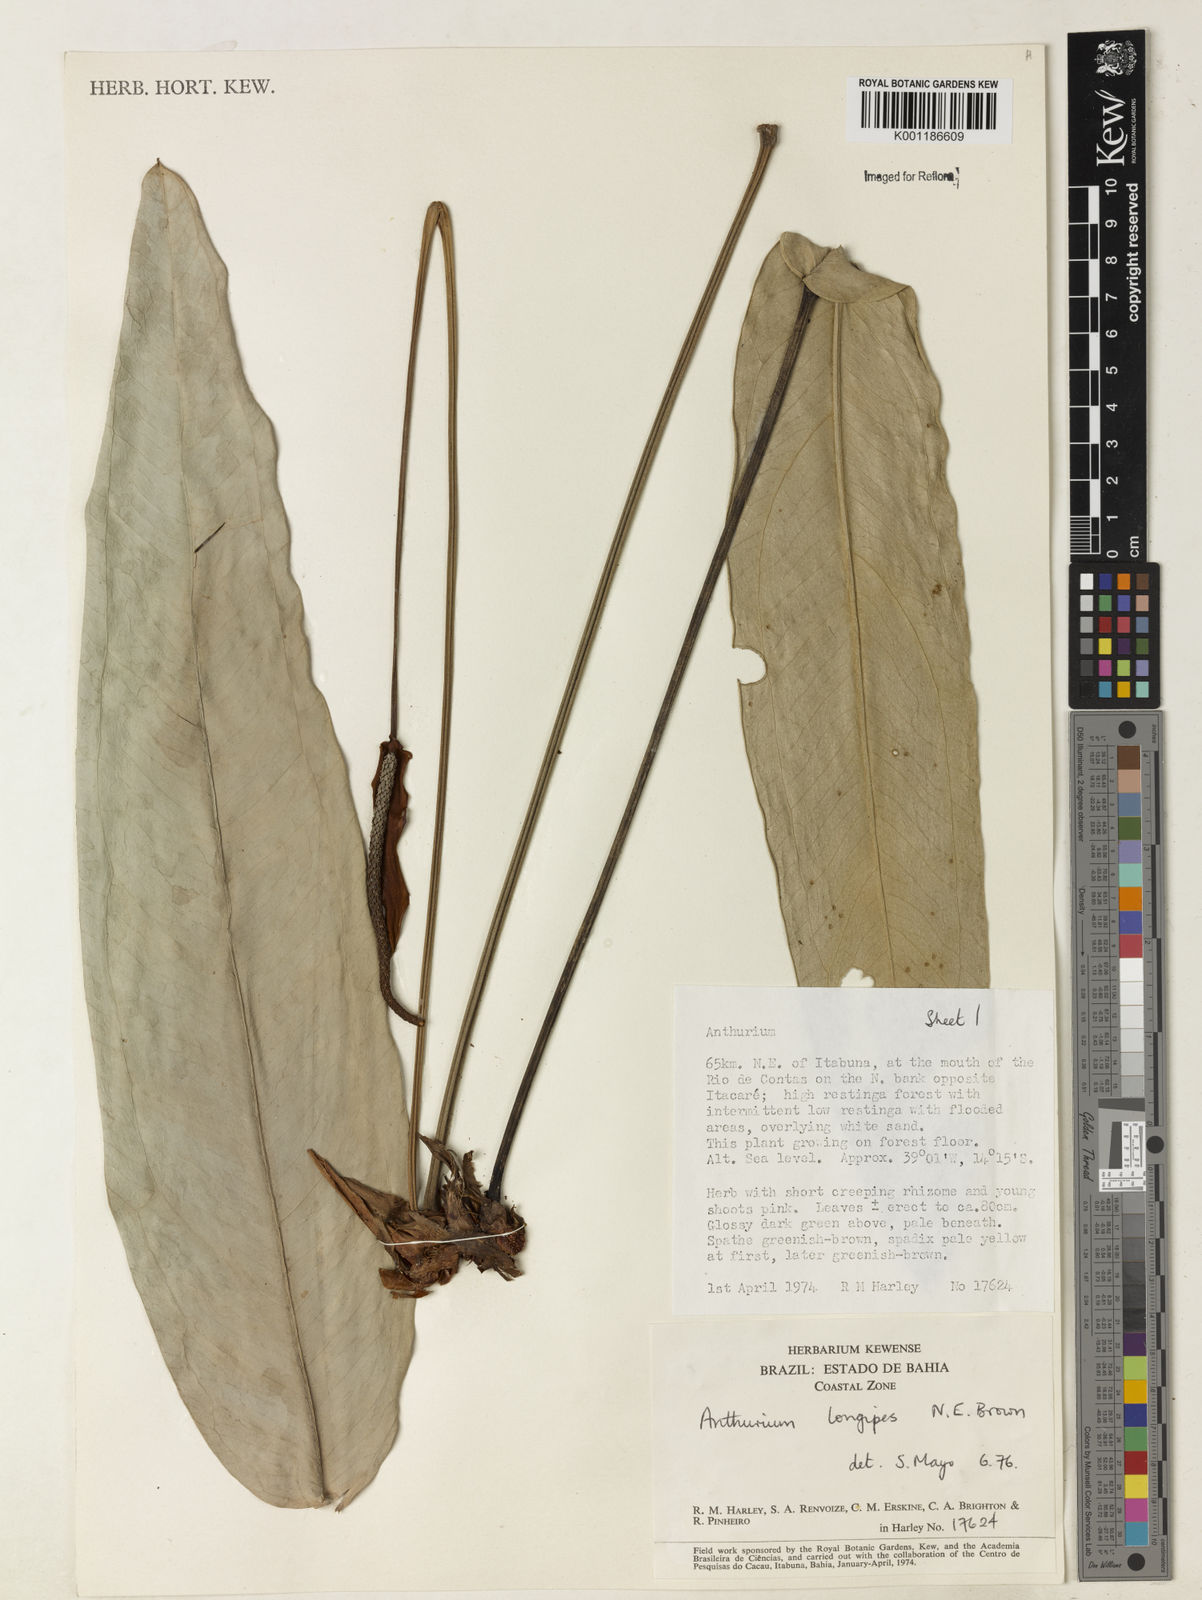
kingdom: Plantae
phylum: Tracheophyta
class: Liliopsida
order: Alismatales
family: Araceae
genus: Anthurium
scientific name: Anthurium longipes
